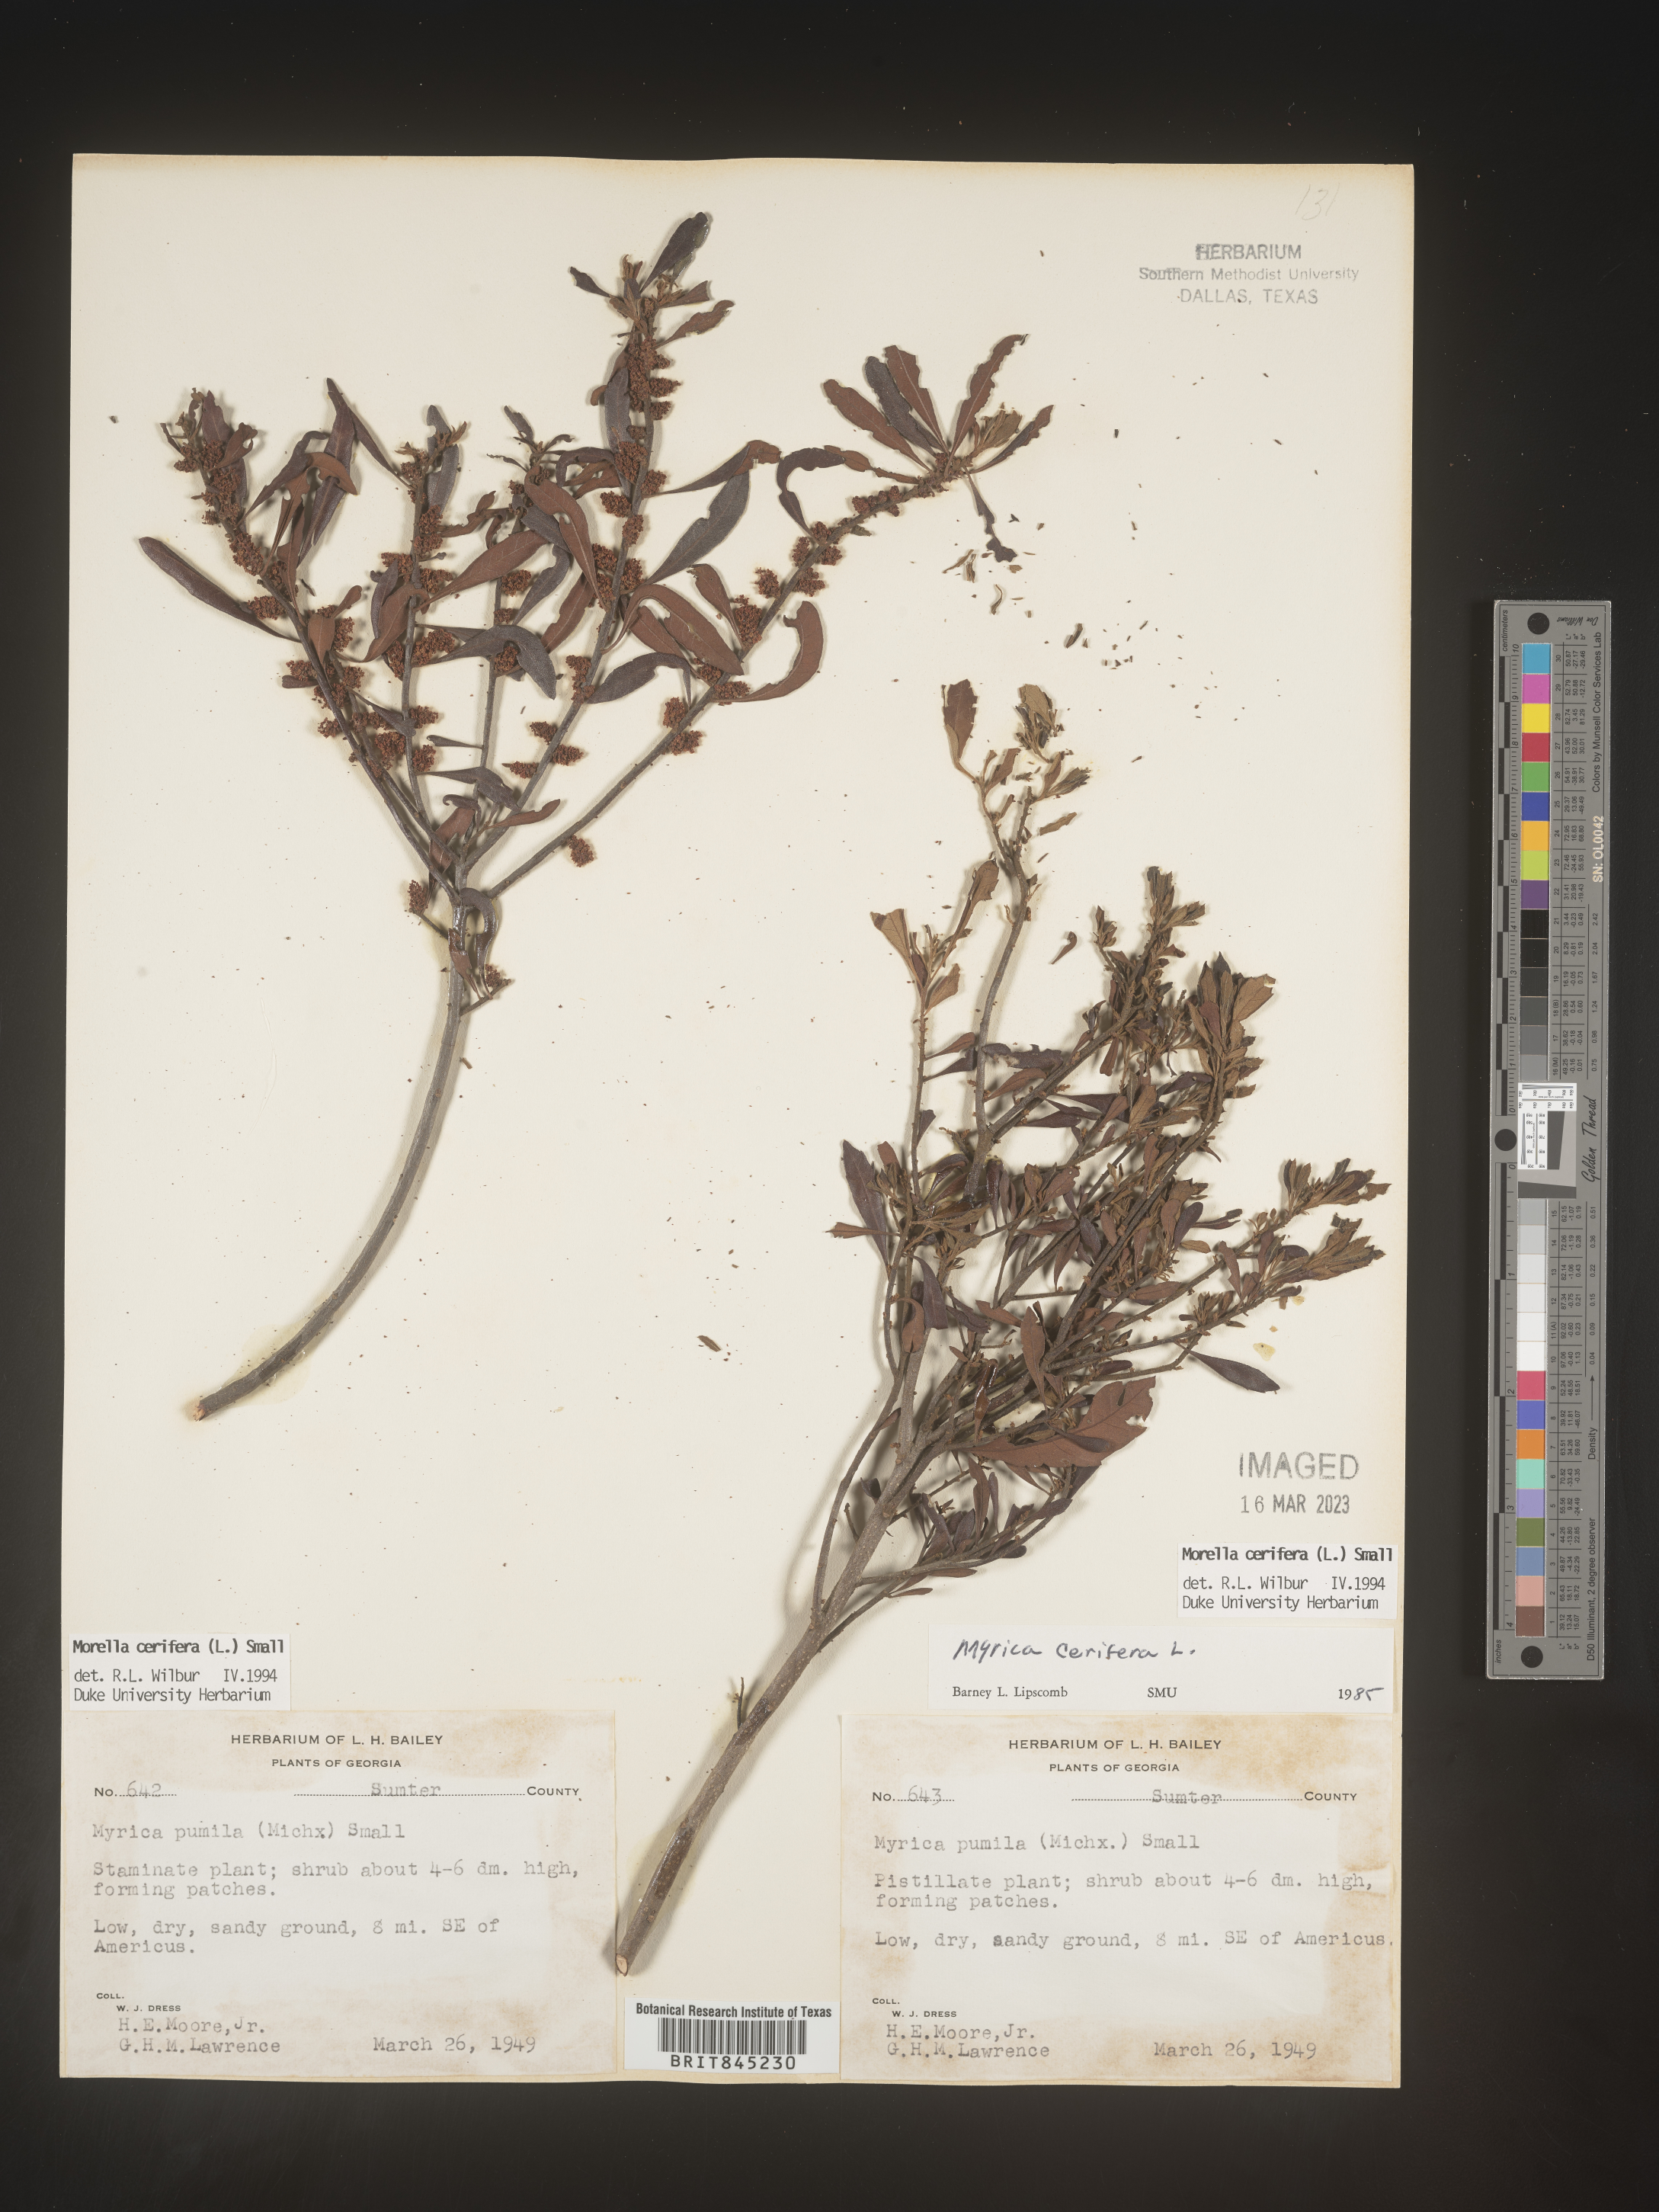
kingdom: Plantae
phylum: Tracheophyta
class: Magnoliopsida
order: Fagales
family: Myricaceae
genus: Morella
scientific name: Morella cerifera
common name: Wax myrtle
